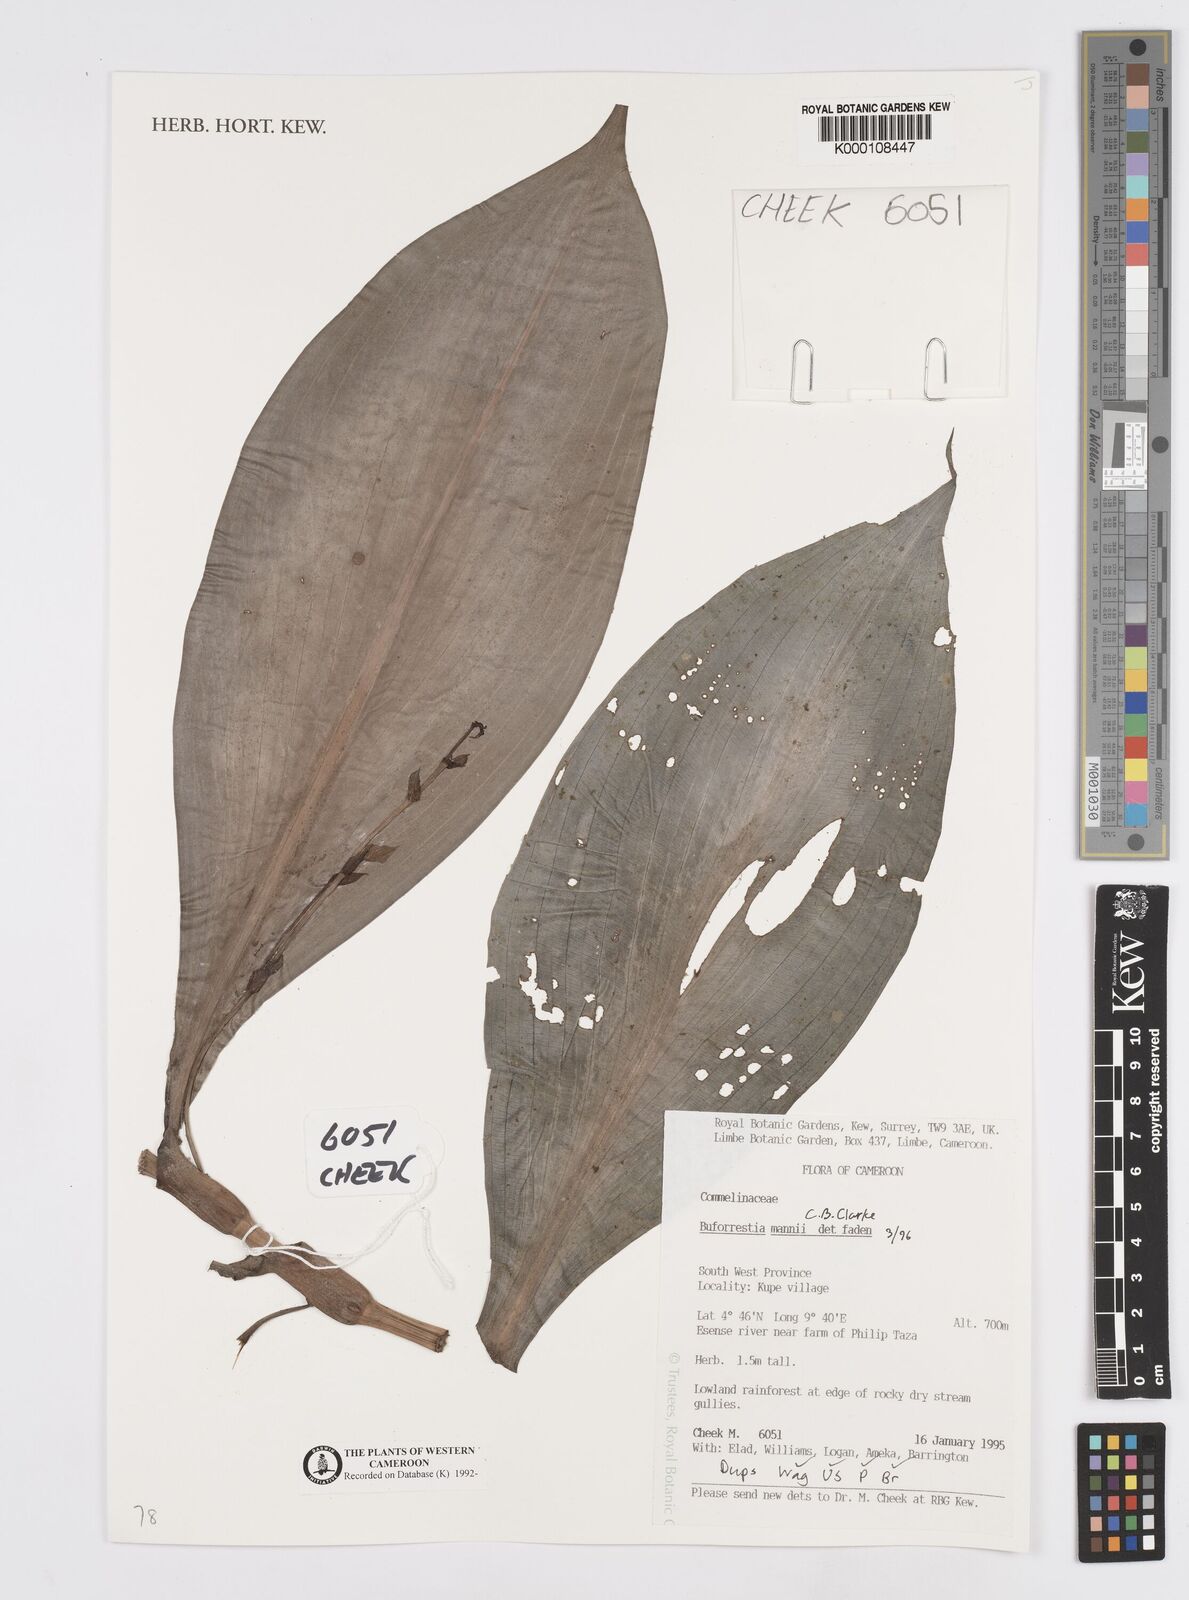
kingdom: Plantae
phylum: Tracheophyta
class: Liliopsida
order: Commelinales
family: Commelinaceae
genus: Buforrestia
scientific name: Buforrestia mannii
